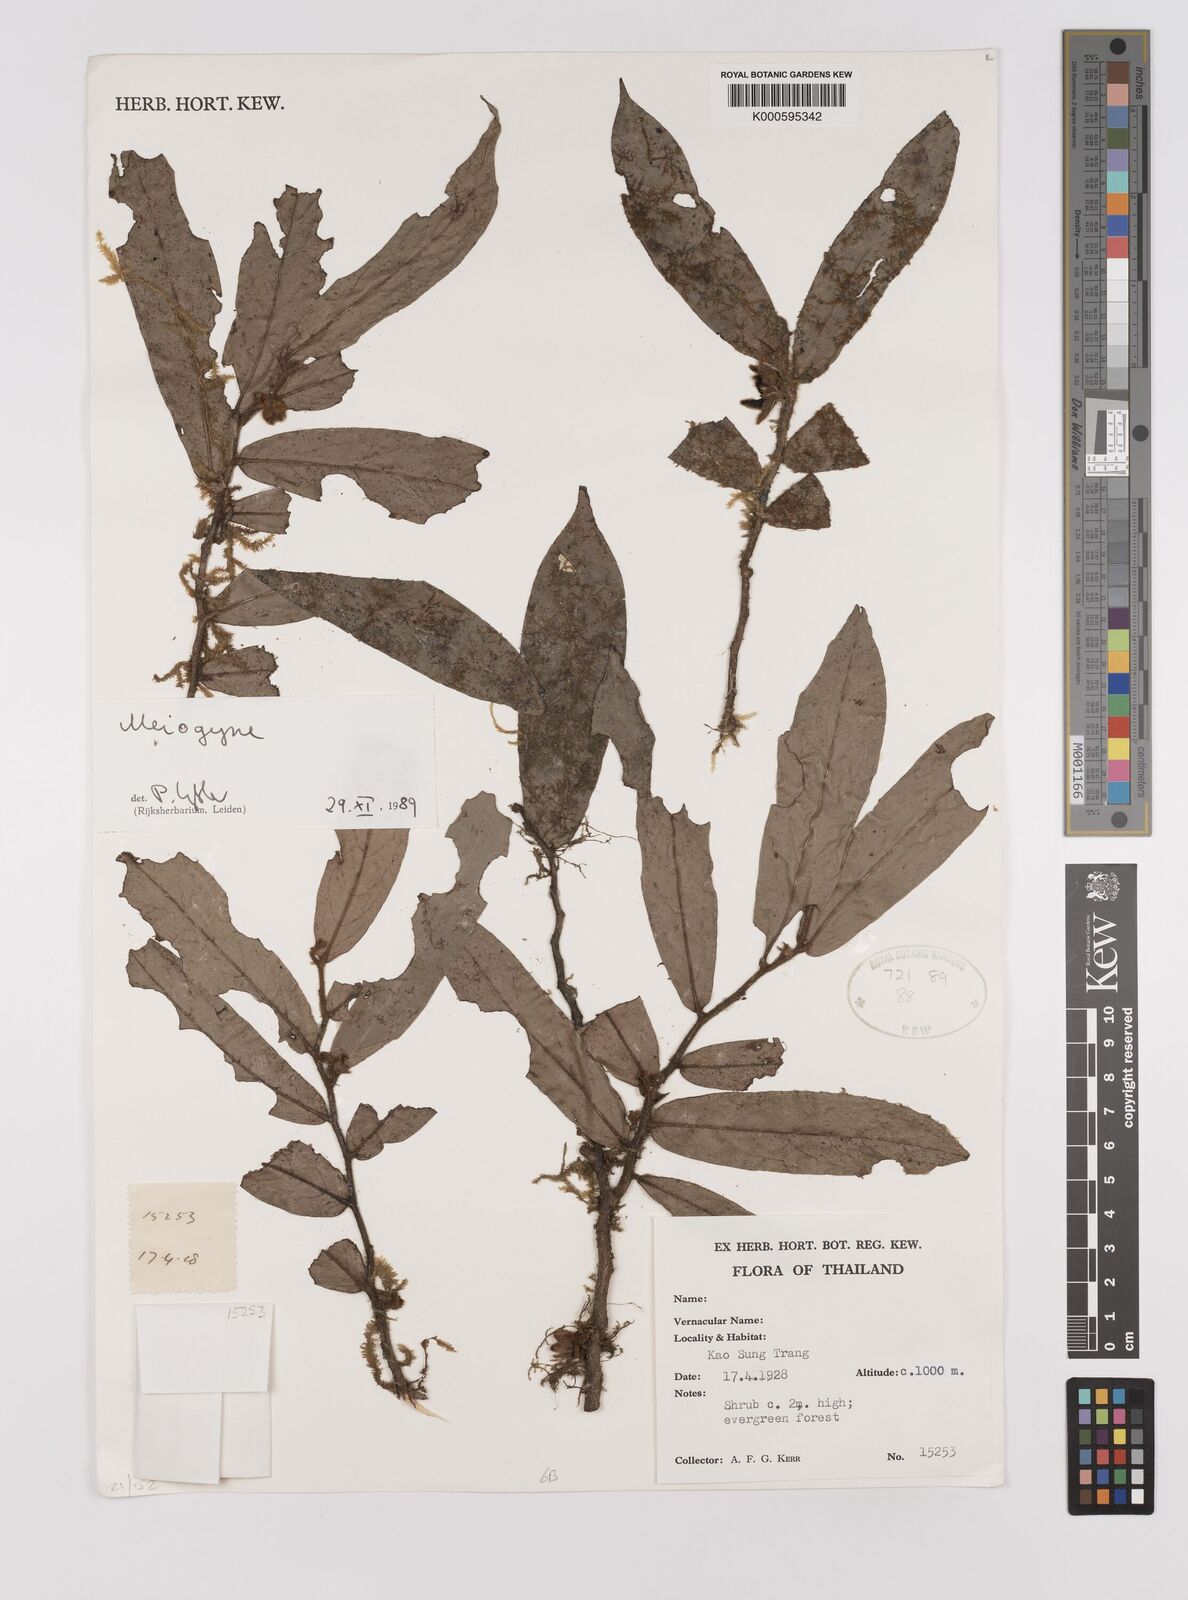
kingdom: Plantae
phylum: Tracheophyta
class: Magnoliopsida
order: Magnoliales
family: Annonaceae
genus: Meiogyne
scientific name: Meiogyne
